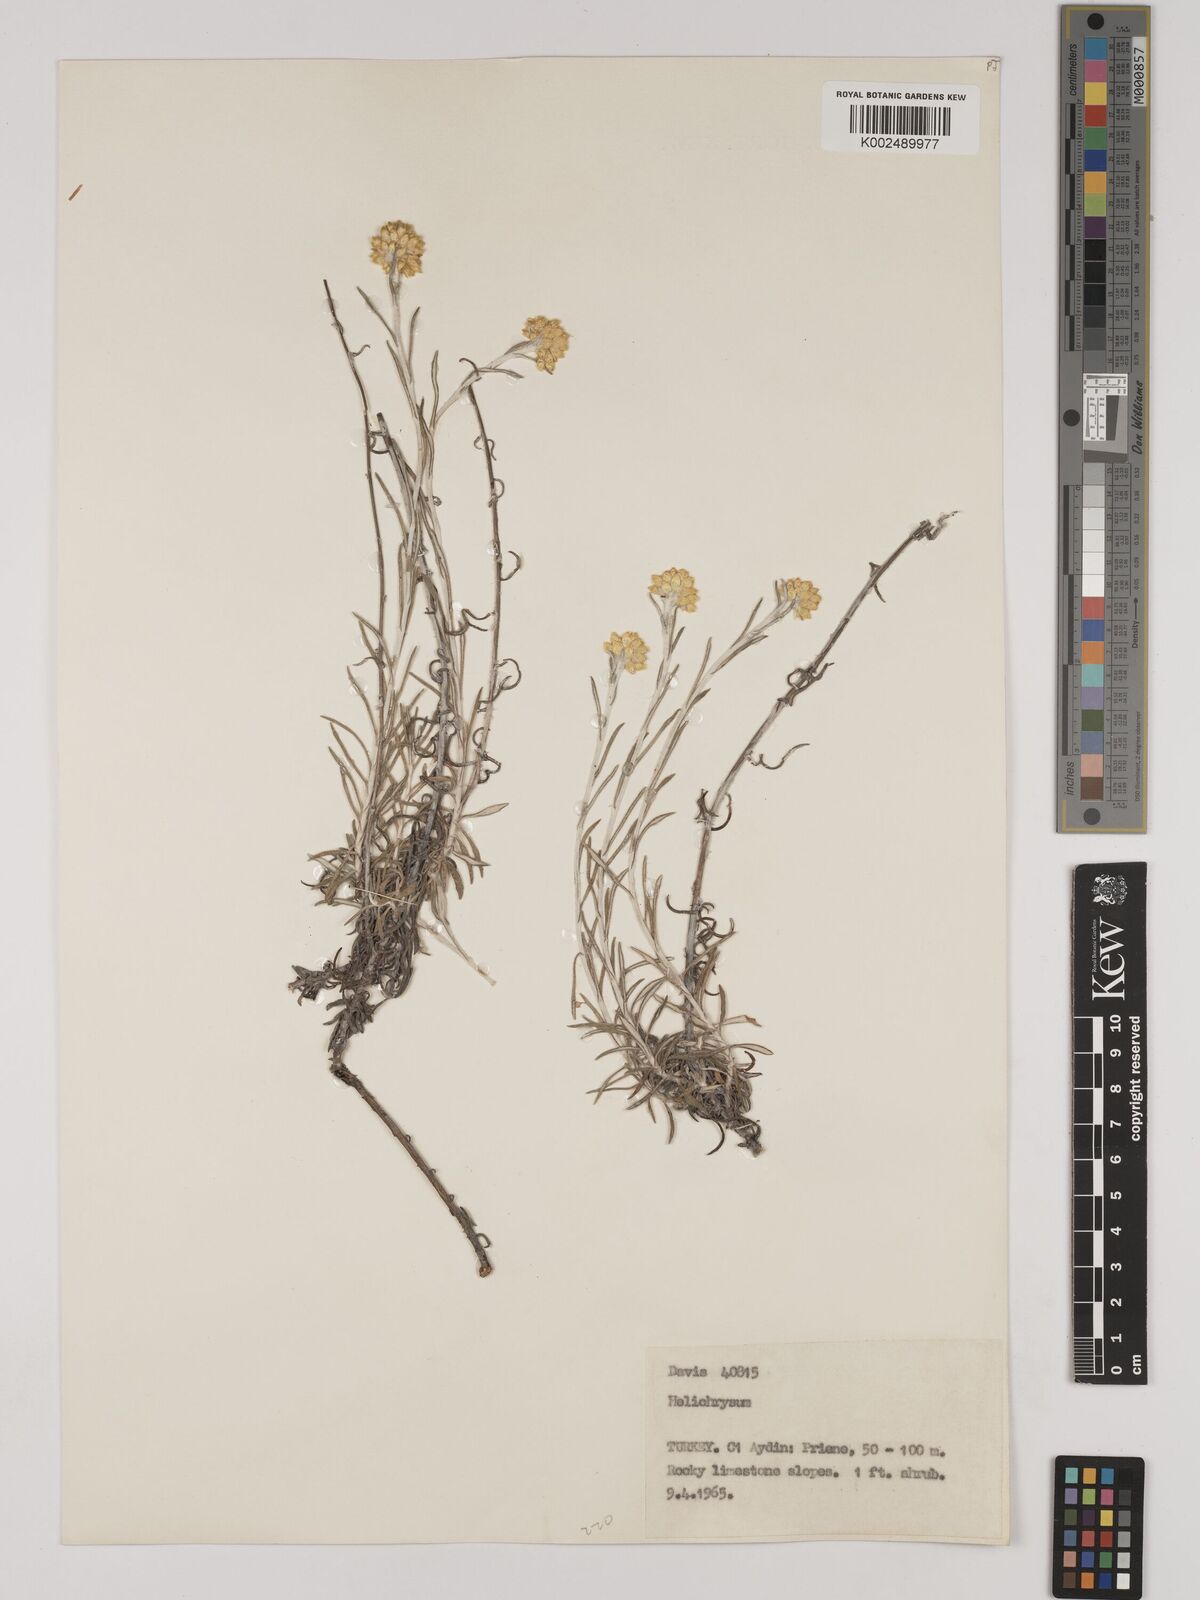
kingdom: Plantae
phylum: Tracheophyta
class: Magnoliopsida
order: Asterales
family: Asteraceae
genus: Helichrysum
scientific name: Helichrysum stoechas
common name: Goldilocks
